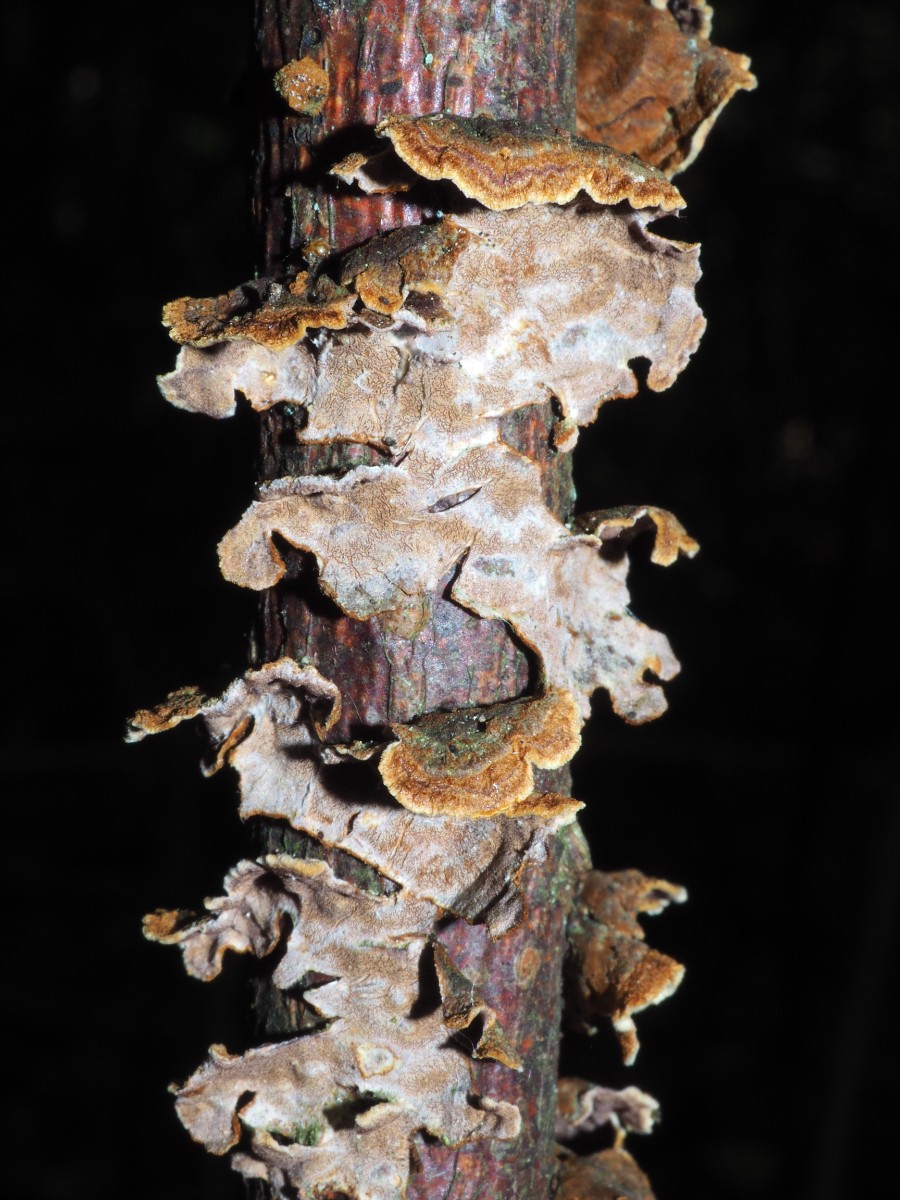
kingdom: Fungi
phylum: Basidiomycota
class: Agaricomycetes
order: Hymenochaetales
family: Hymenochaetaceae
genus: Hydnoporia
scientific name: Hydnoporia tabacina
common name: tobaksbrun ruslædersvamp
